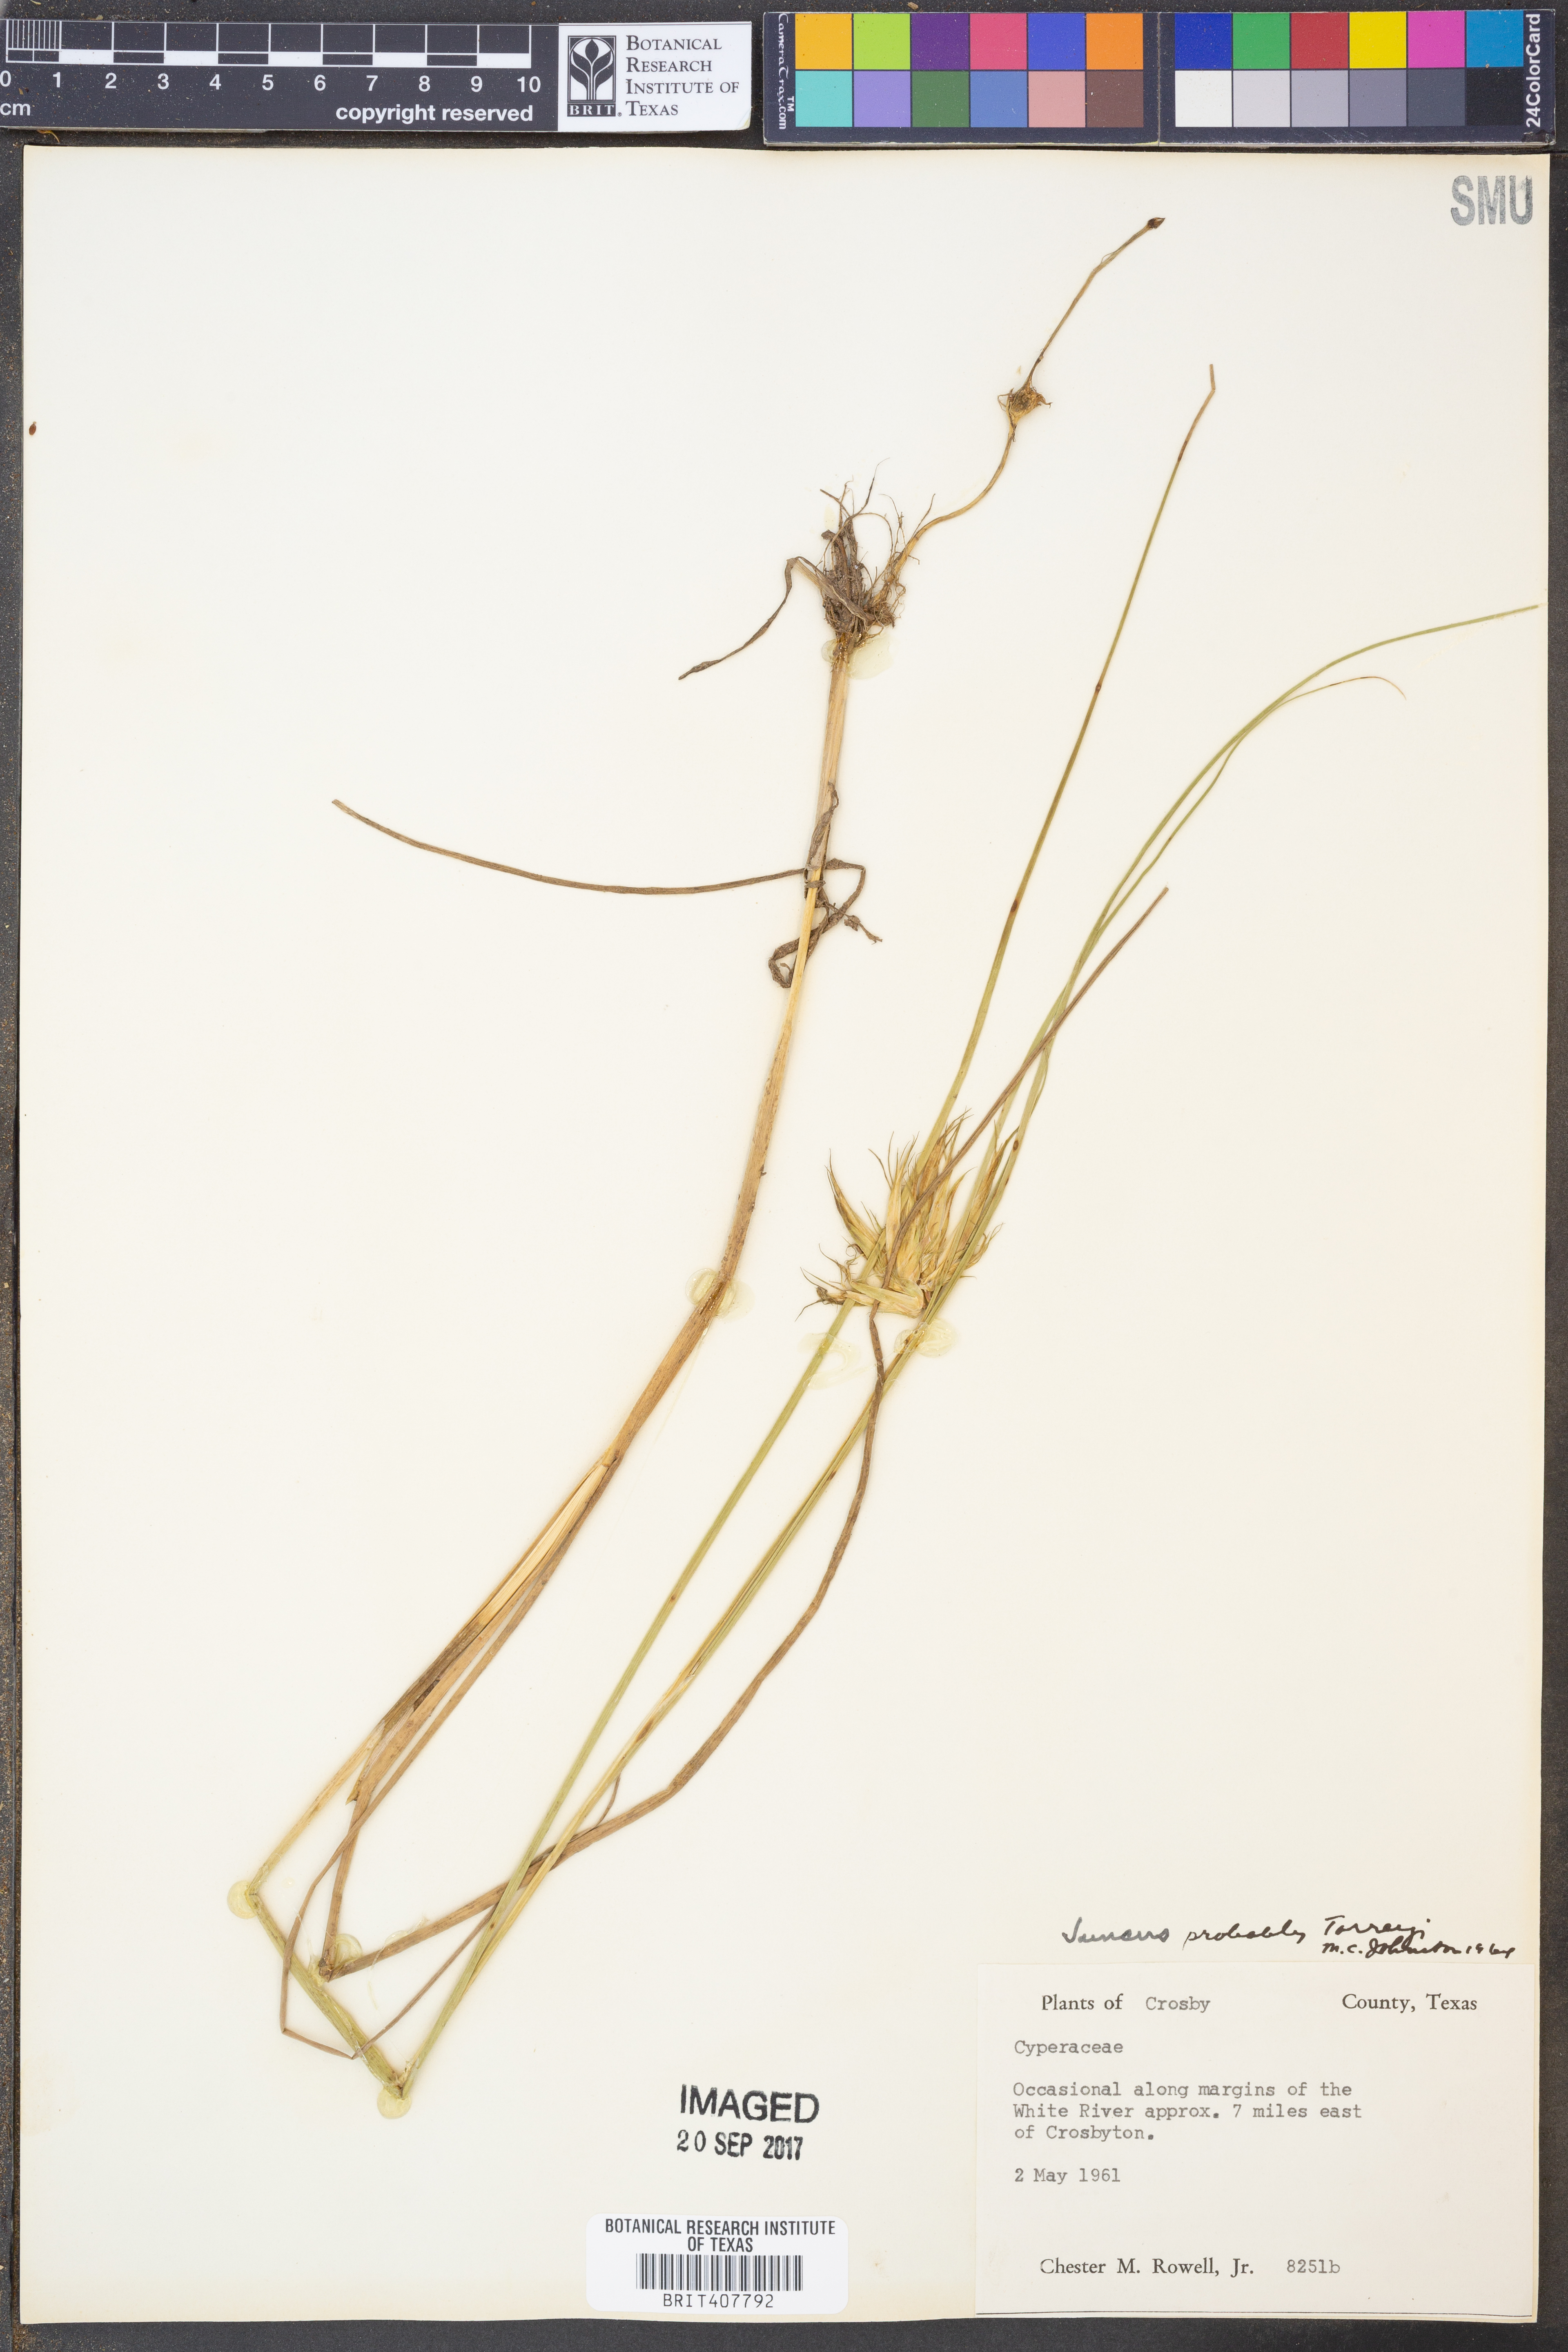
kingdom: Plantae
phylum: Tracheophyta
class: Liliopsida
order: Poales
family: Juncaceae
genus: Juncus
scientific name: Juncus torreyi
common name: Torrey's rush
